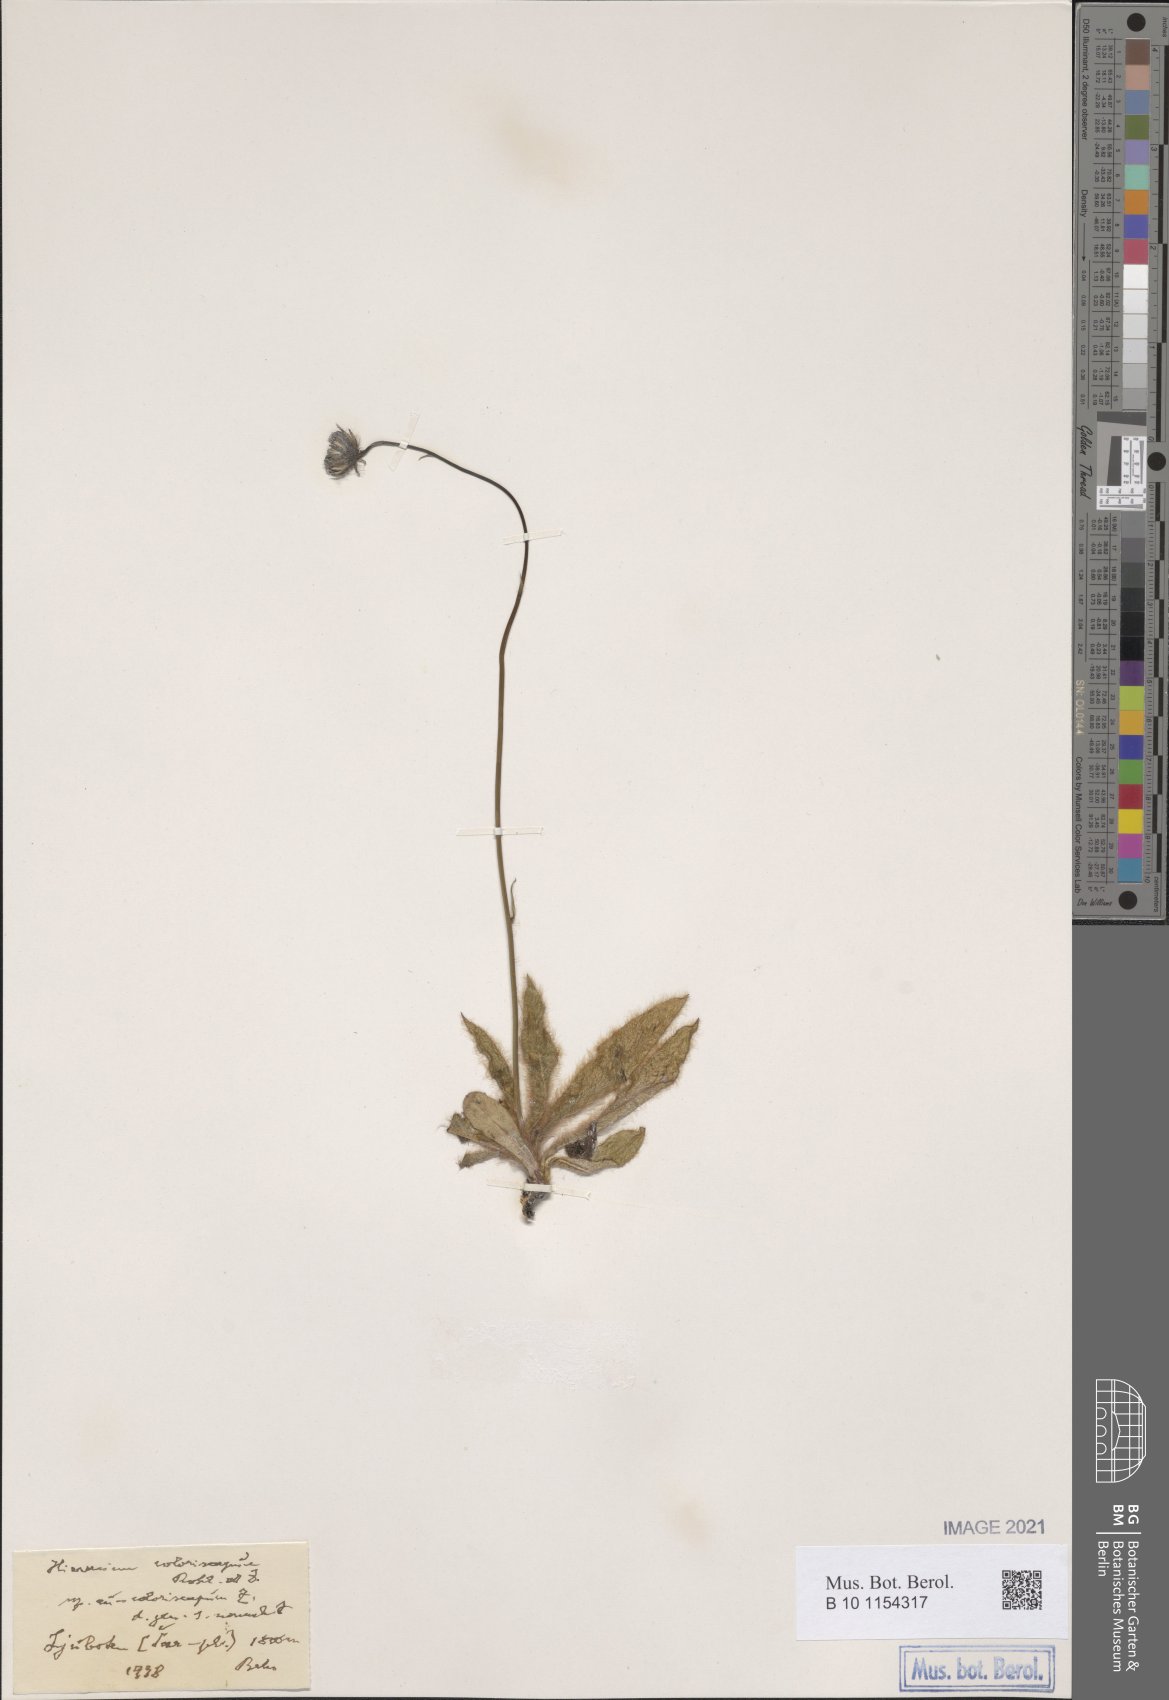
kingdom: Plantae
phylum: Tracheophyta
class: Magnoliopsida
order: Asterales
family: Asteraceae
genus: Hieracium
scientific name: Hieracium coloriscapum
